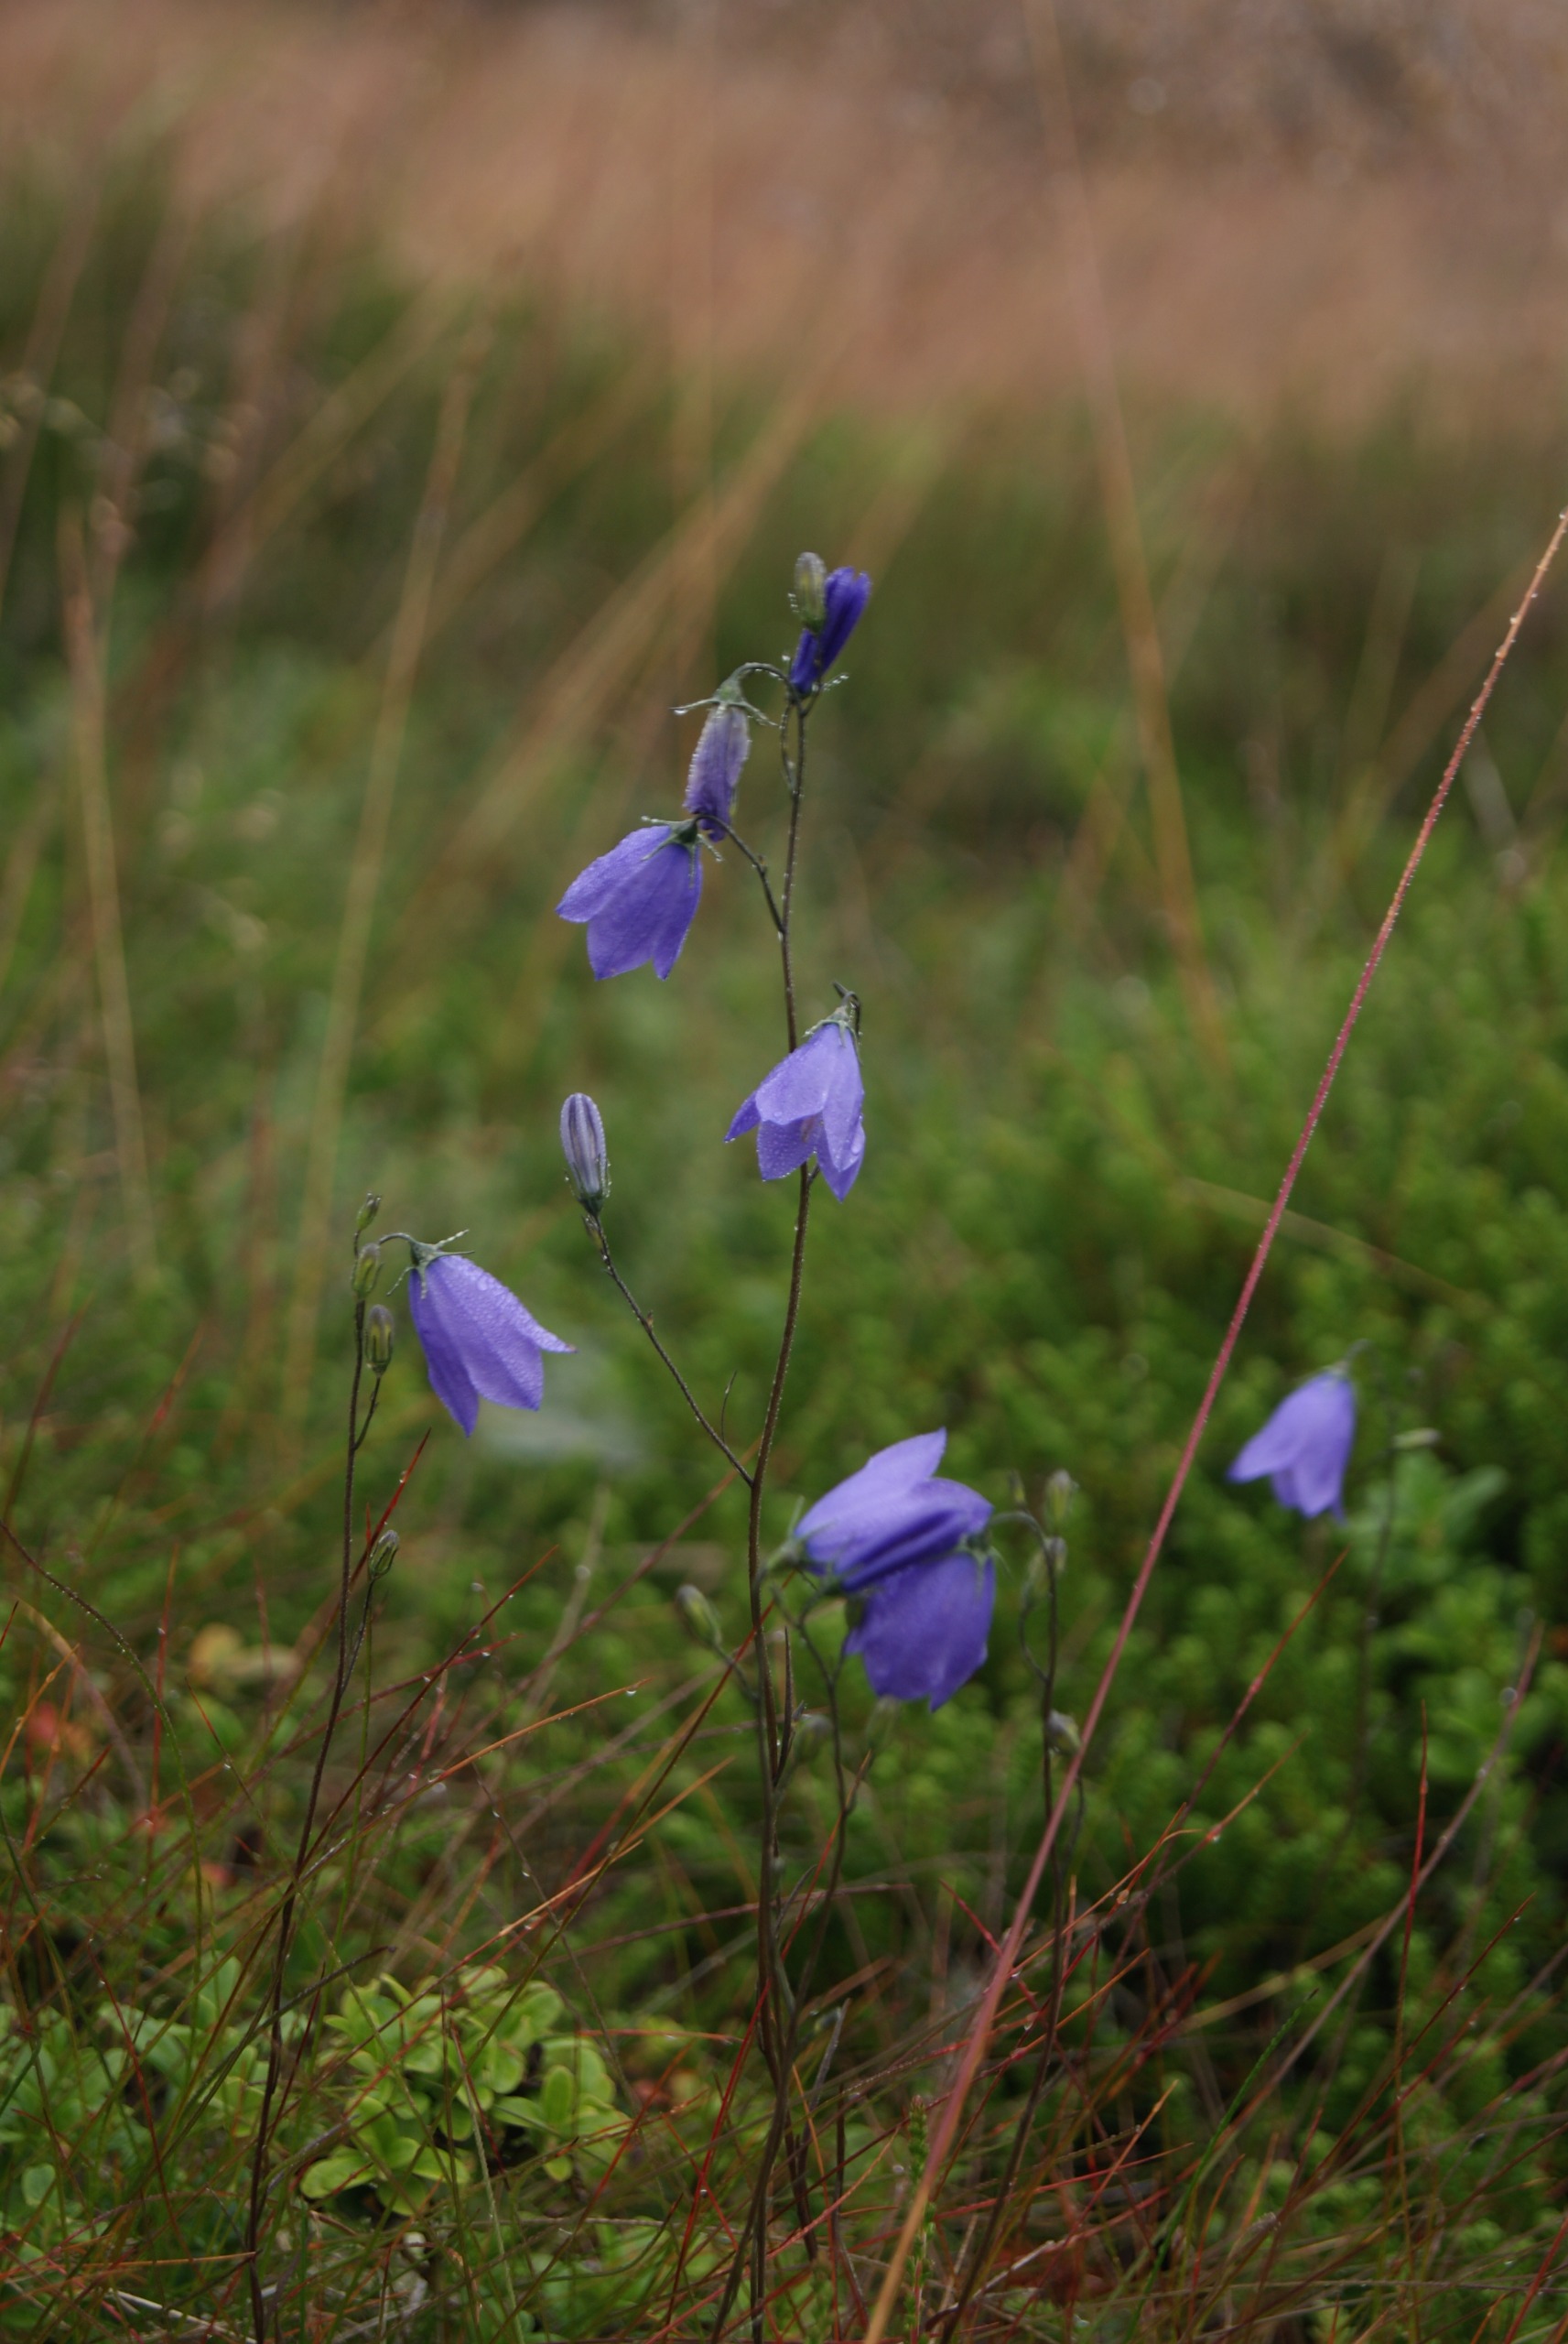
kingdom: Plantae
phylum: Tracheophyta
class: Magnoliopsida
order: Asterales
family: Campanulaceae
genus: Campanula
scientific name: Campanula rotundifolia
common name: Liden klokke
